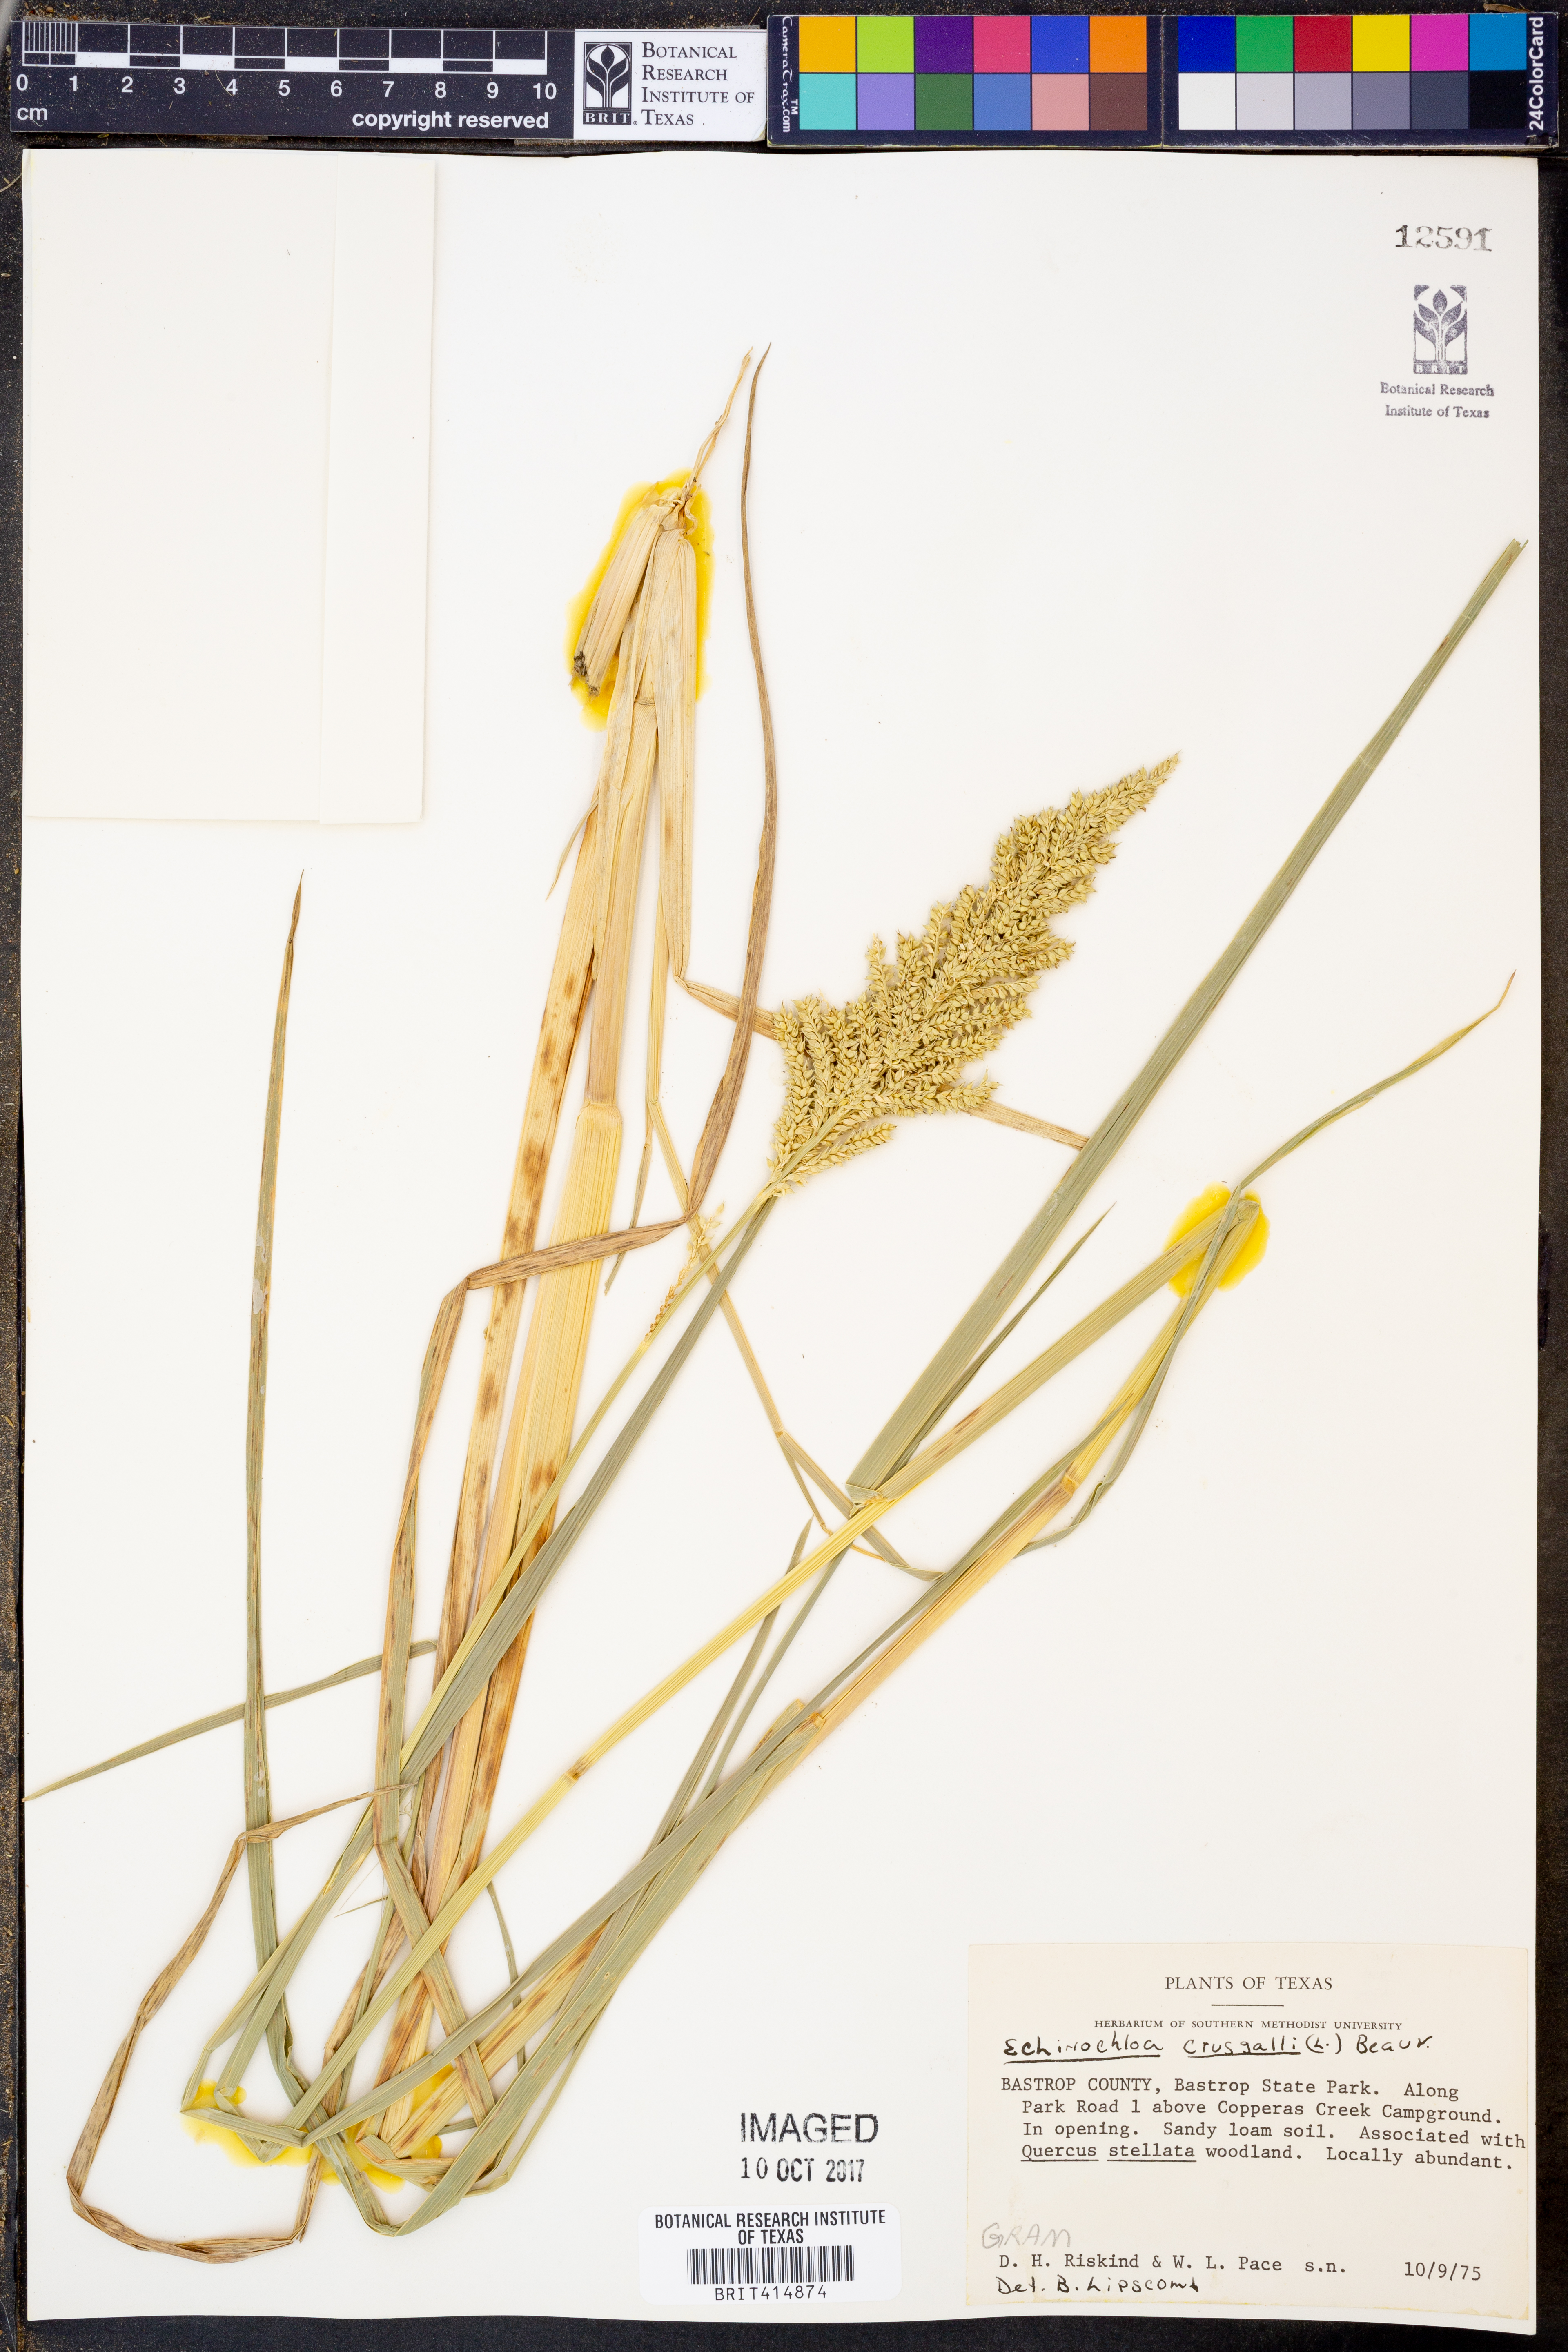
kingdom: Plantae
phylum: Tracheophyta
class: Liliopsida
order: Poales
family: Poaceae
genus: Echinochloa
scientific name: Echinochloa
